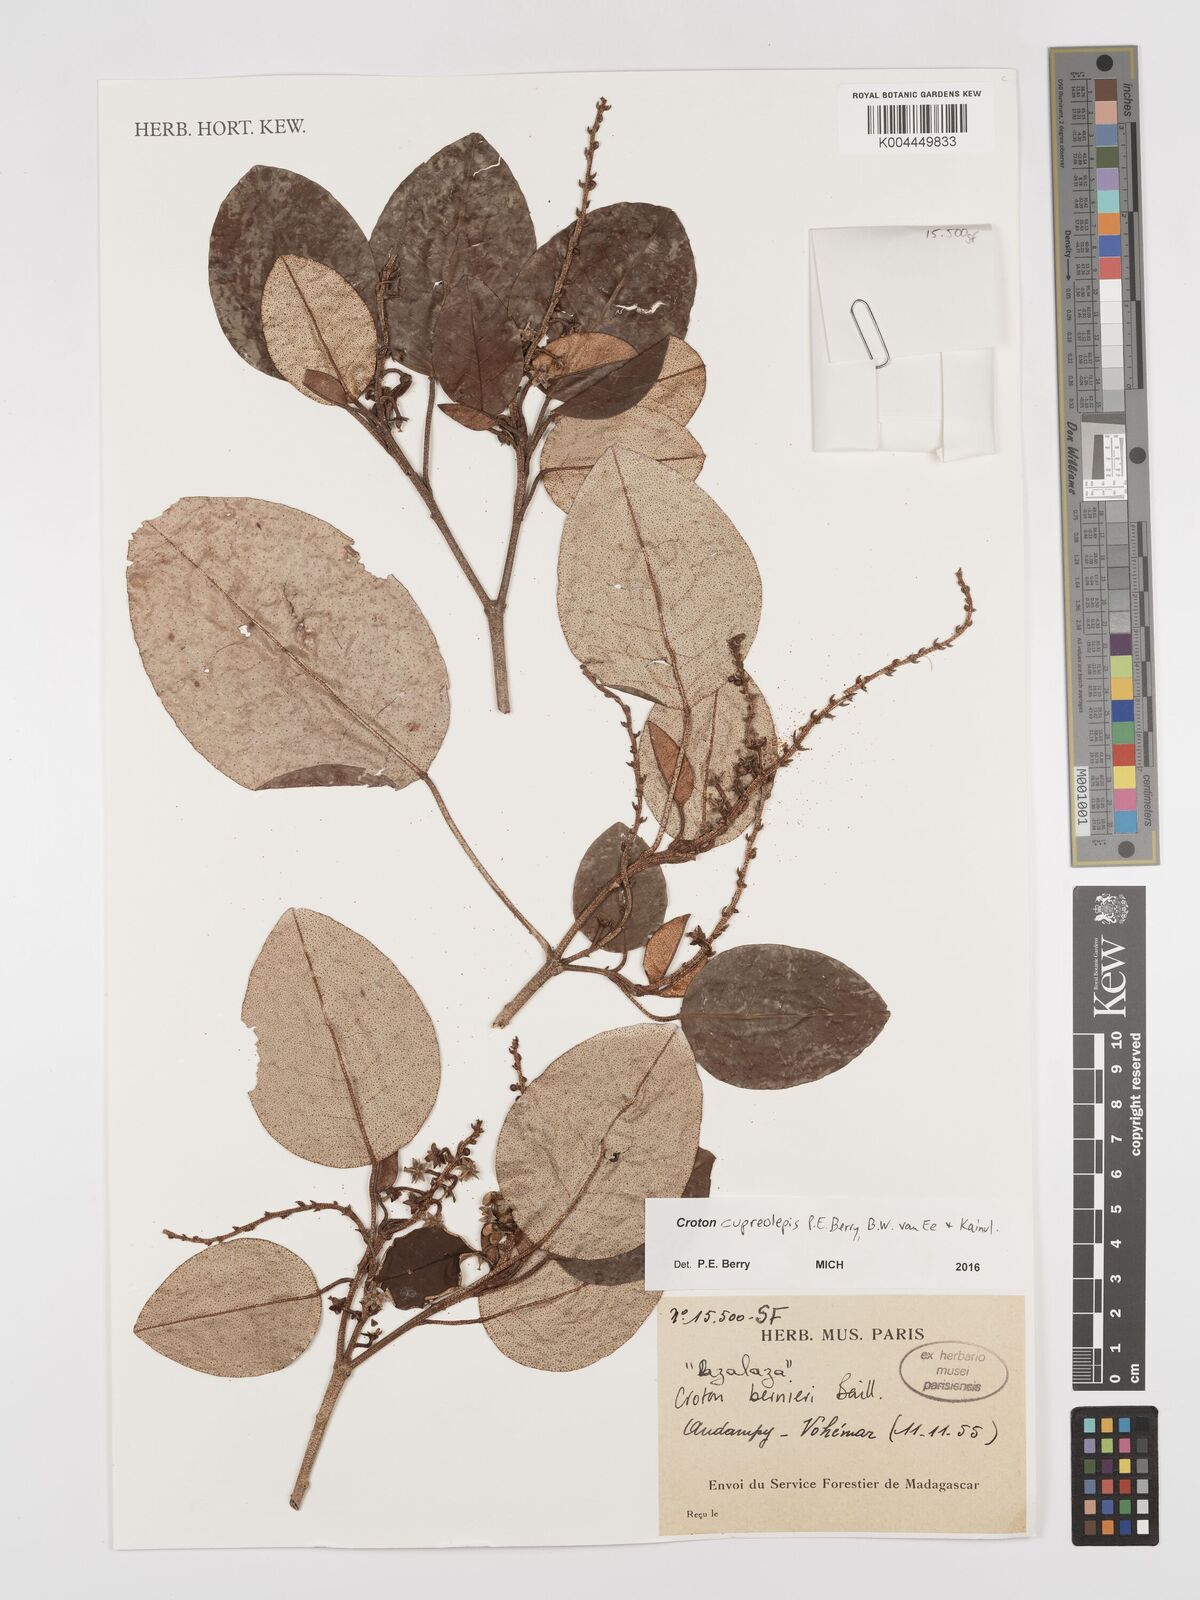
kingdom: Plantae
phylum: Tracheophyta
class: Magnoliopsida
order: Malpighiales
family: Euphorbiaceae
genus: Croton
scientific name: Croton cupreolepis
